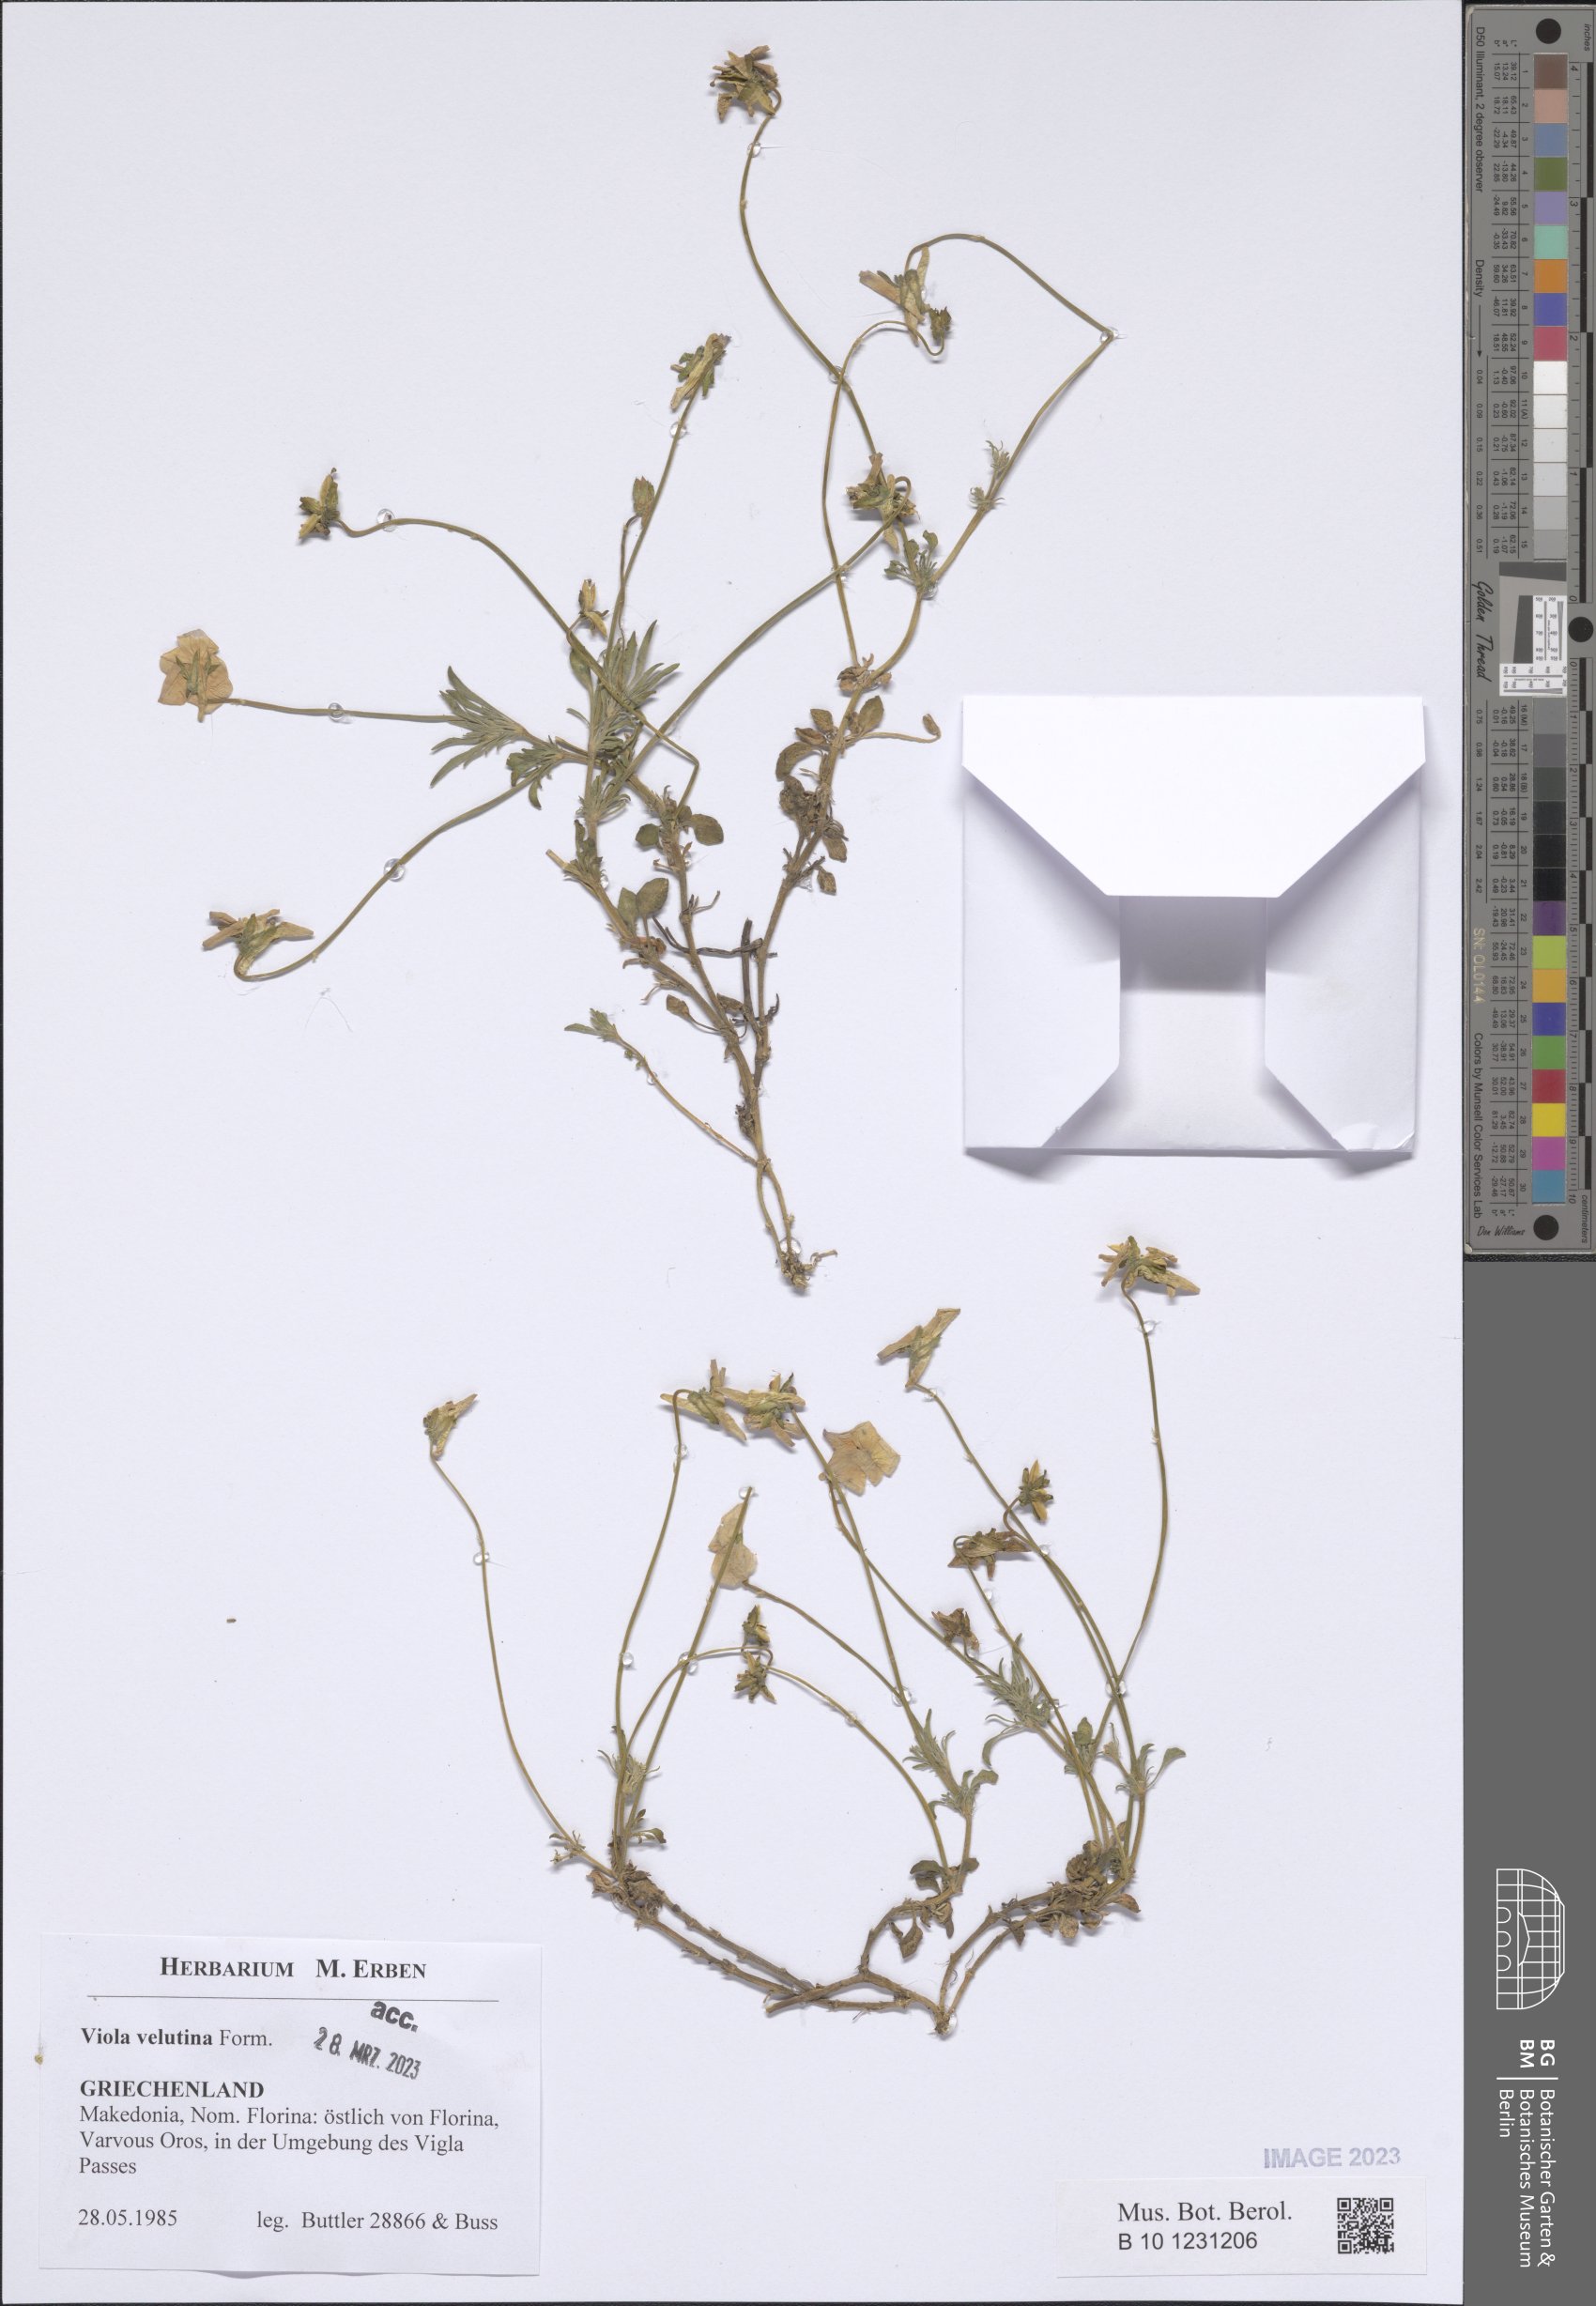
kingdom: Plantae
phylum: Tracheophyta
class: Magnoliopsida
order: Malpighiales
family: Violaceae
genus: Viola
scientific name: Viola velutina
